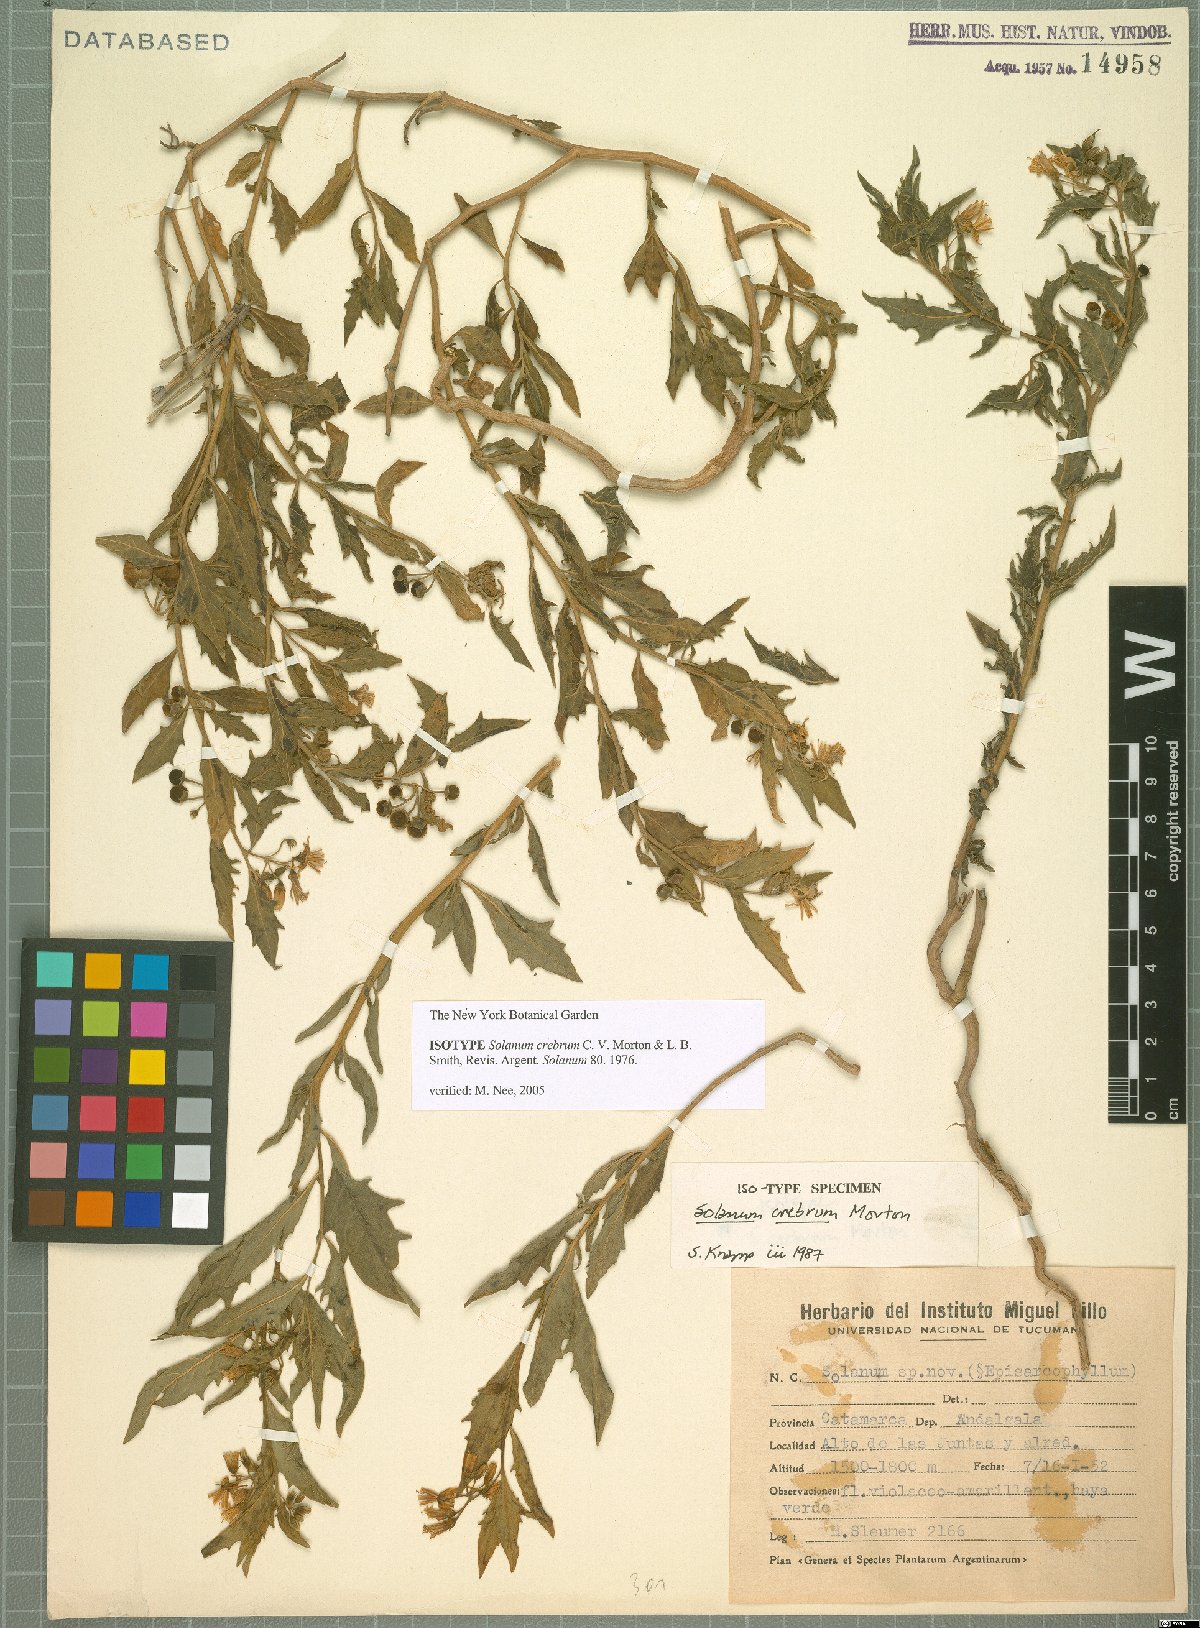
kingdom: Plantae
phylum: Tracheophyta
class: Magnoliopsida
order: Solanales
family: Solanaceae
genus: Solanum
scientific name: Solanum salicifolium
